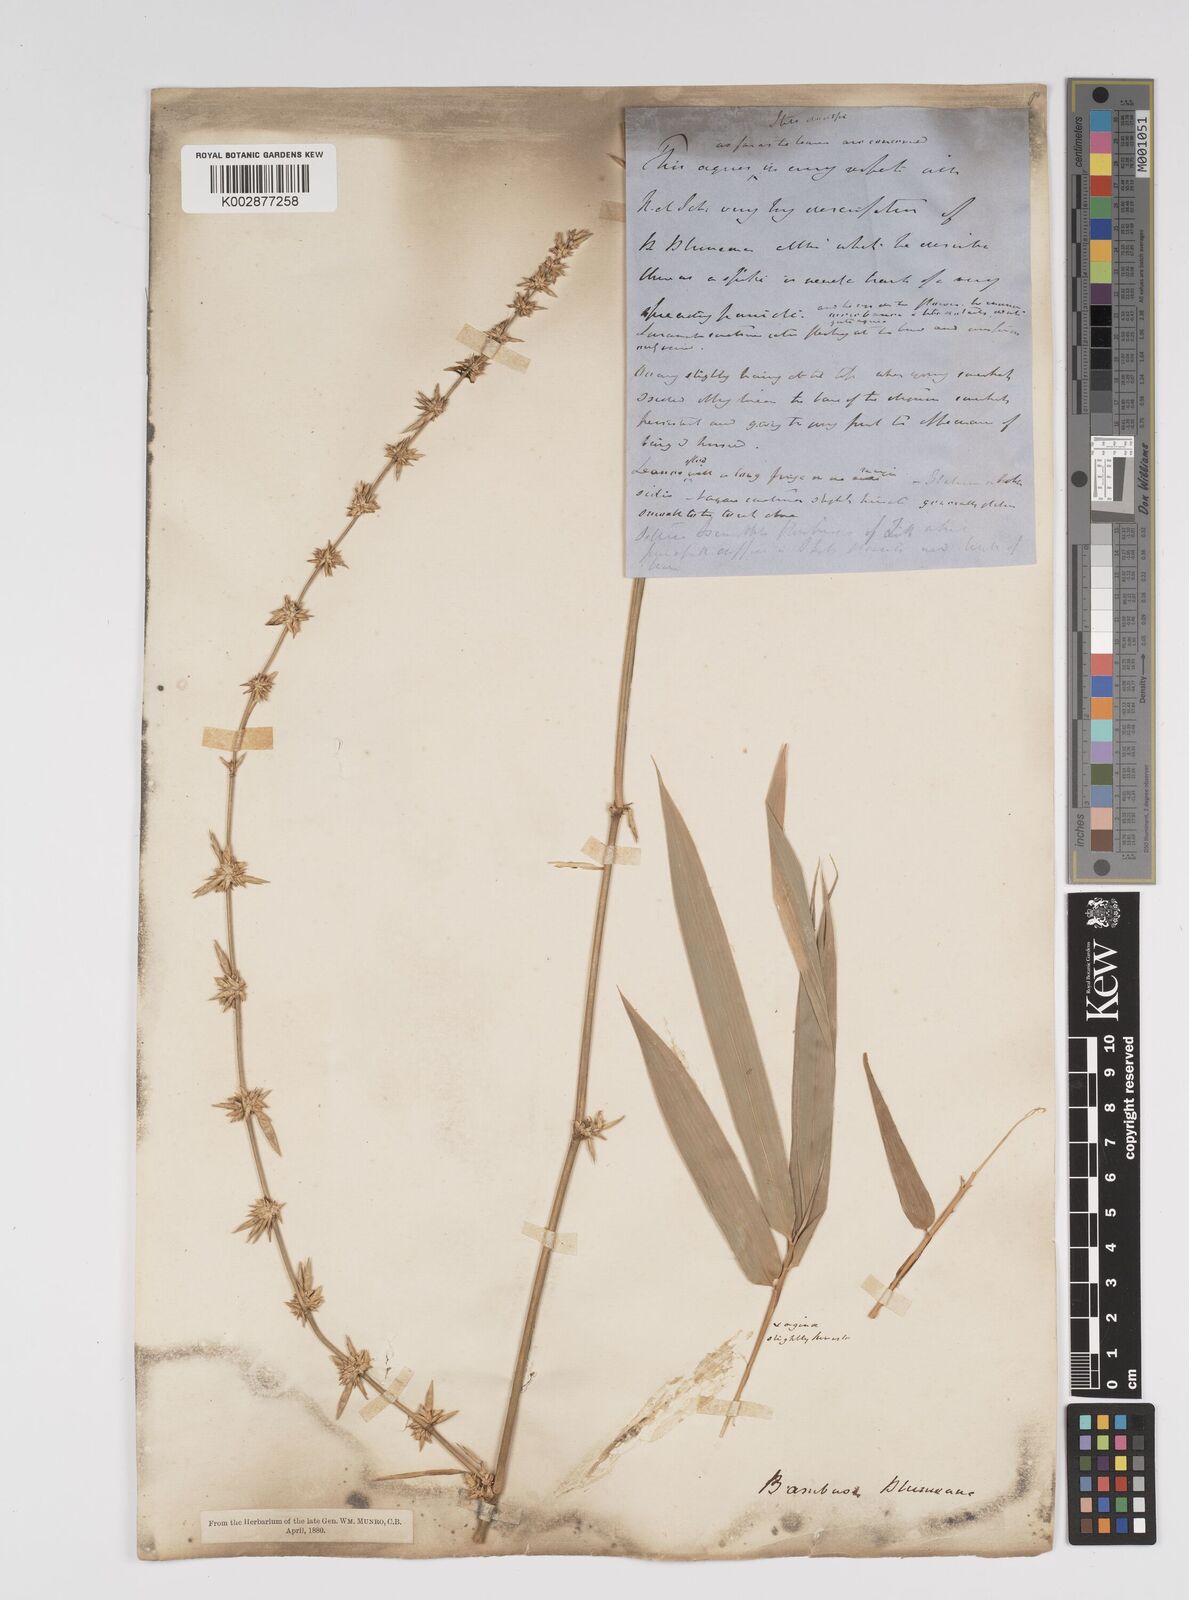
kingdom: Plantae
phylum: Tracheophyta
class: Liliopsida
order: Poales
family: Poaceae
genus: Bambusa
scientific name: Bambusa spinosa
